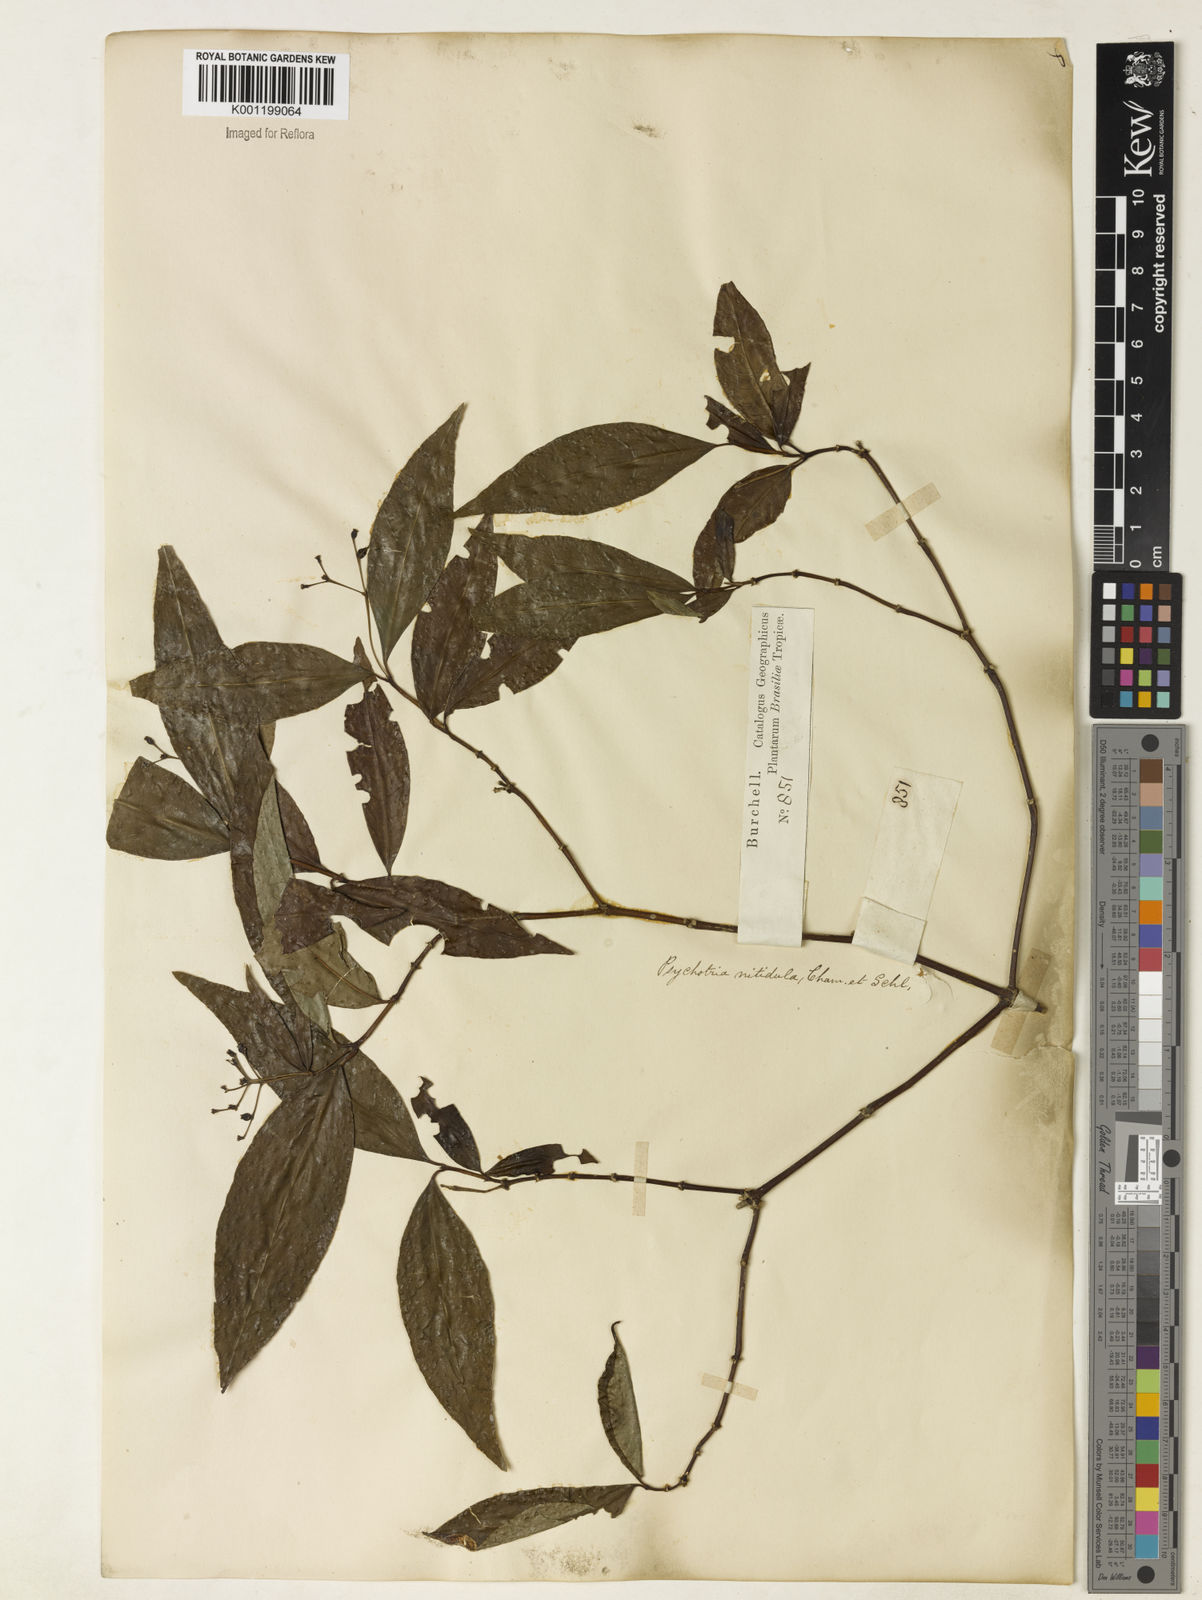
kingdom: Plantae
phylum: Tracheophyta
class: Magnoliopsida
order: Gentianales
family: Rubiaceae
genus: Psychotria
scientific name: Psychotria leiocarpa
